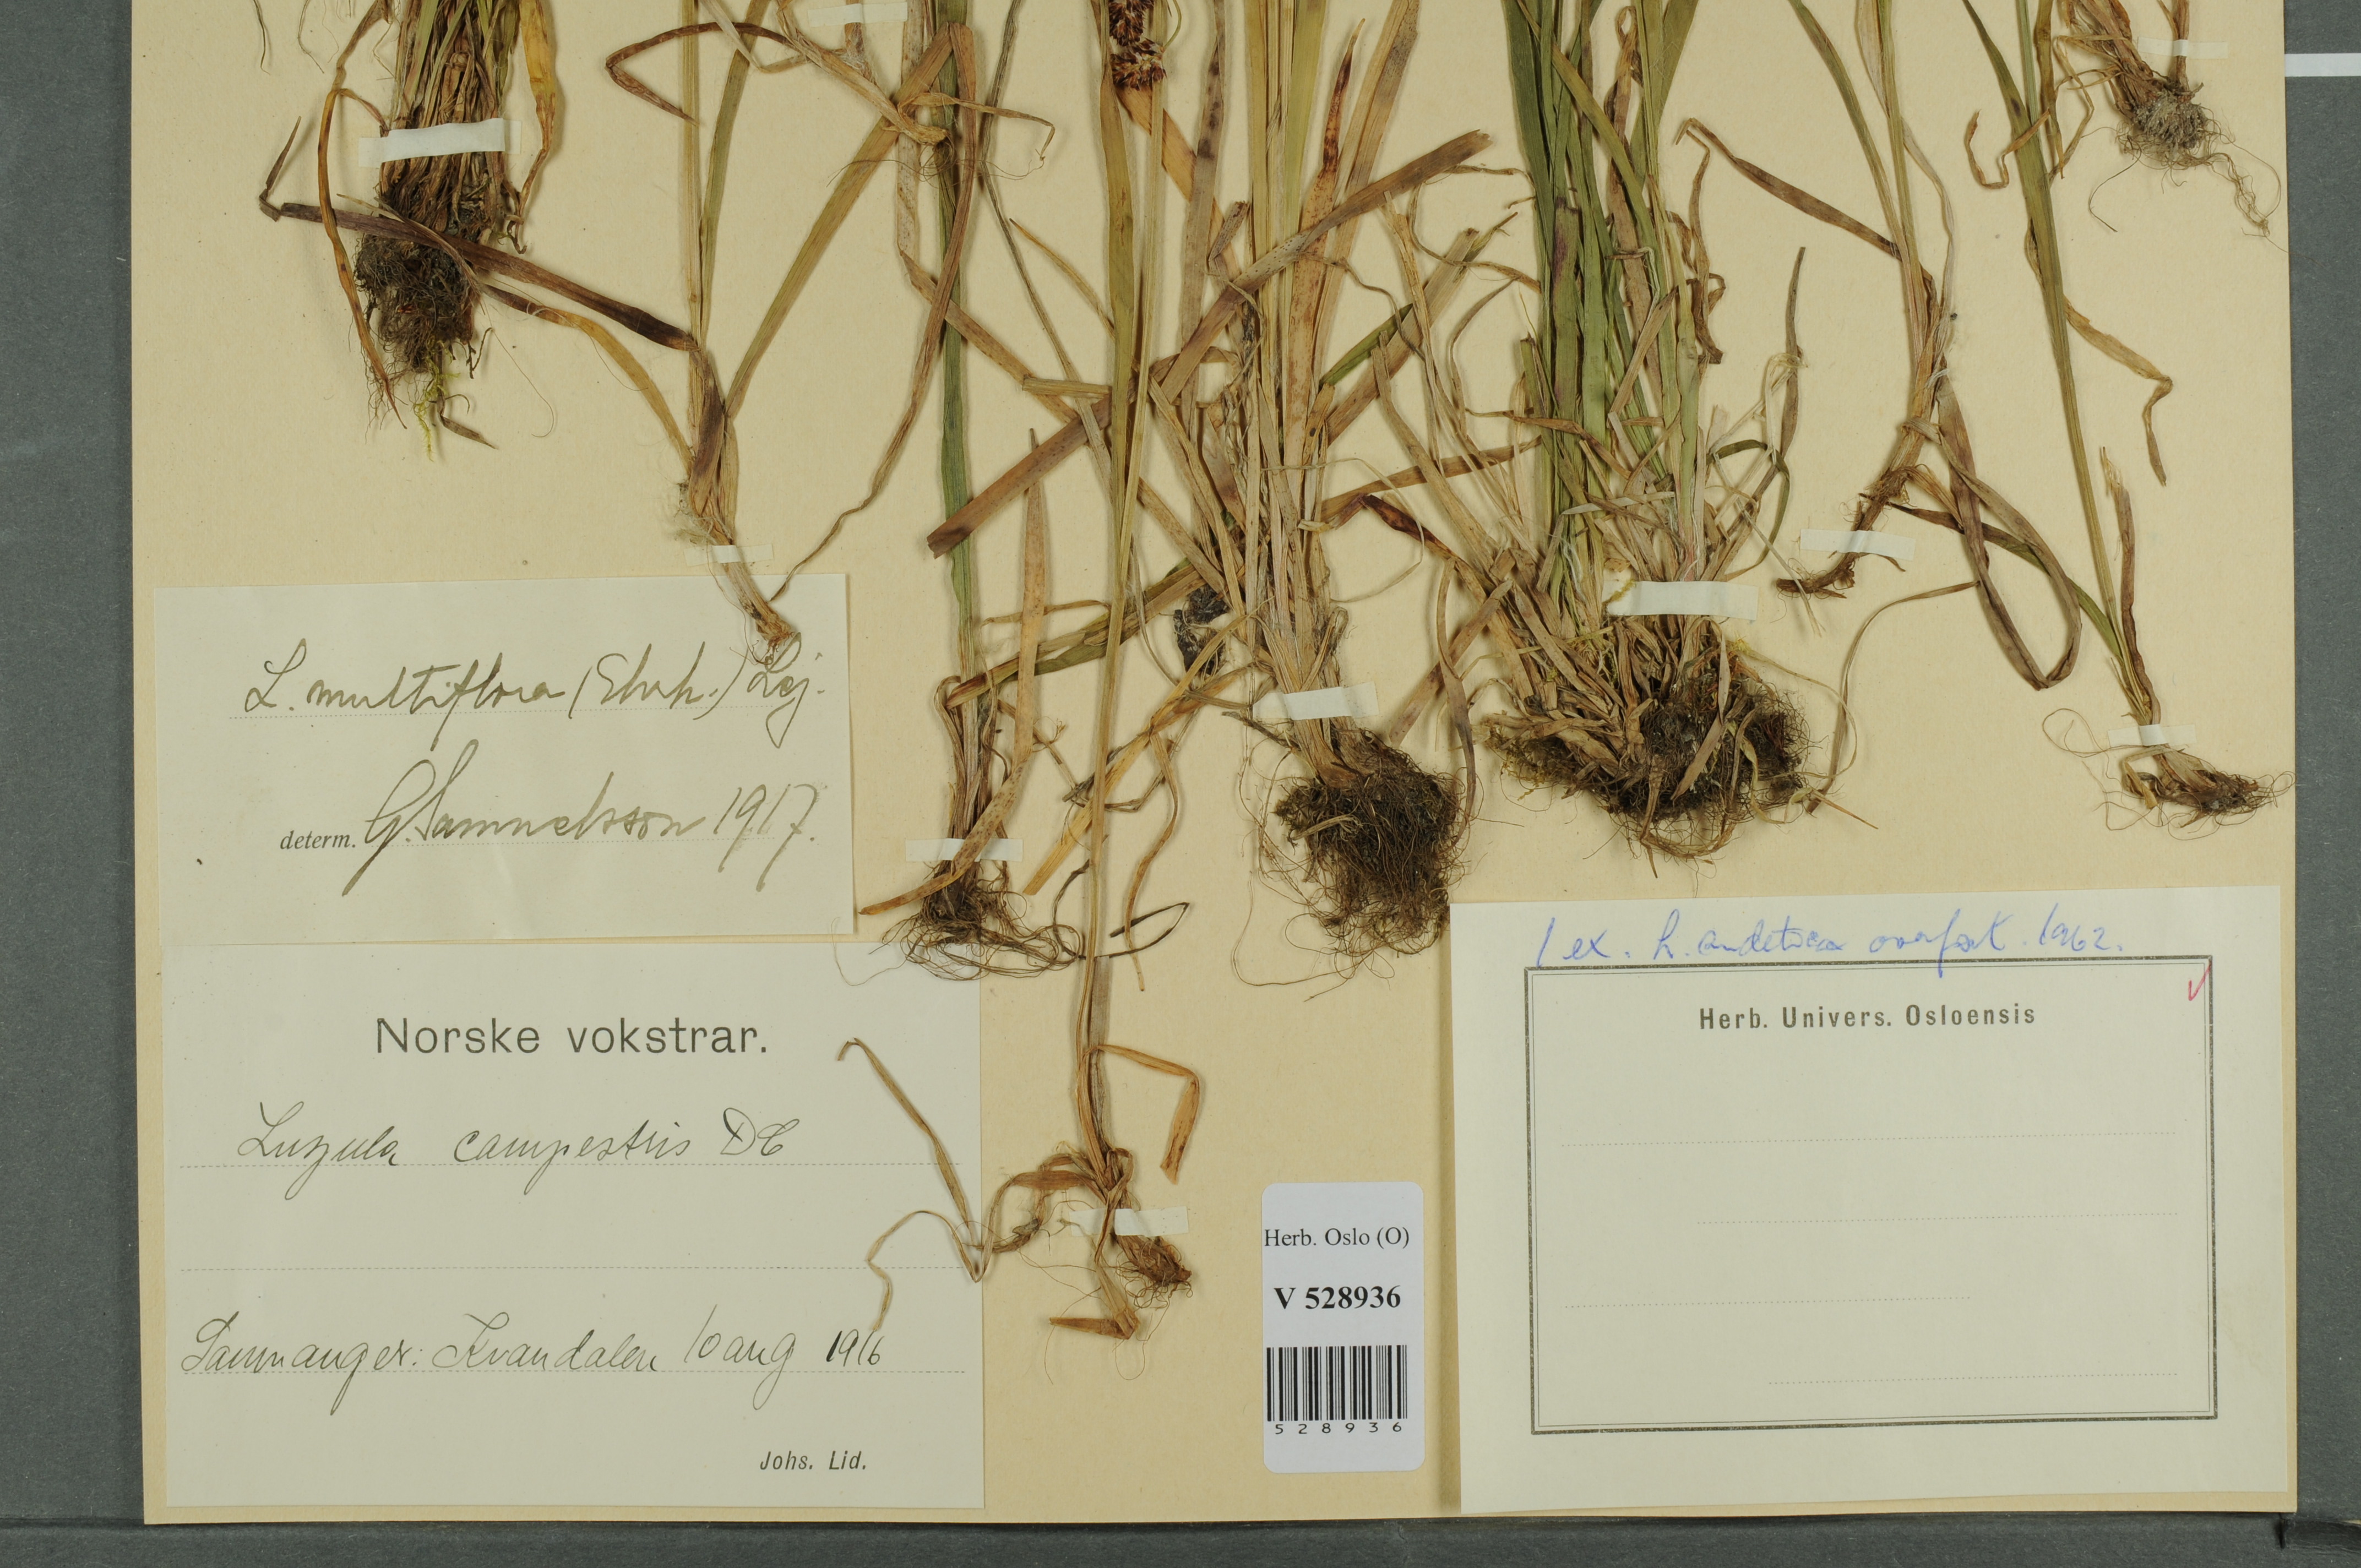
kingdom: Plantae
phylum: Tracheophyta
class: Liliopsida
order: Poales
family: Juncaceae
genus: Luzula
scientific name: Luzula multiflora
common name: Heath wood-rush
